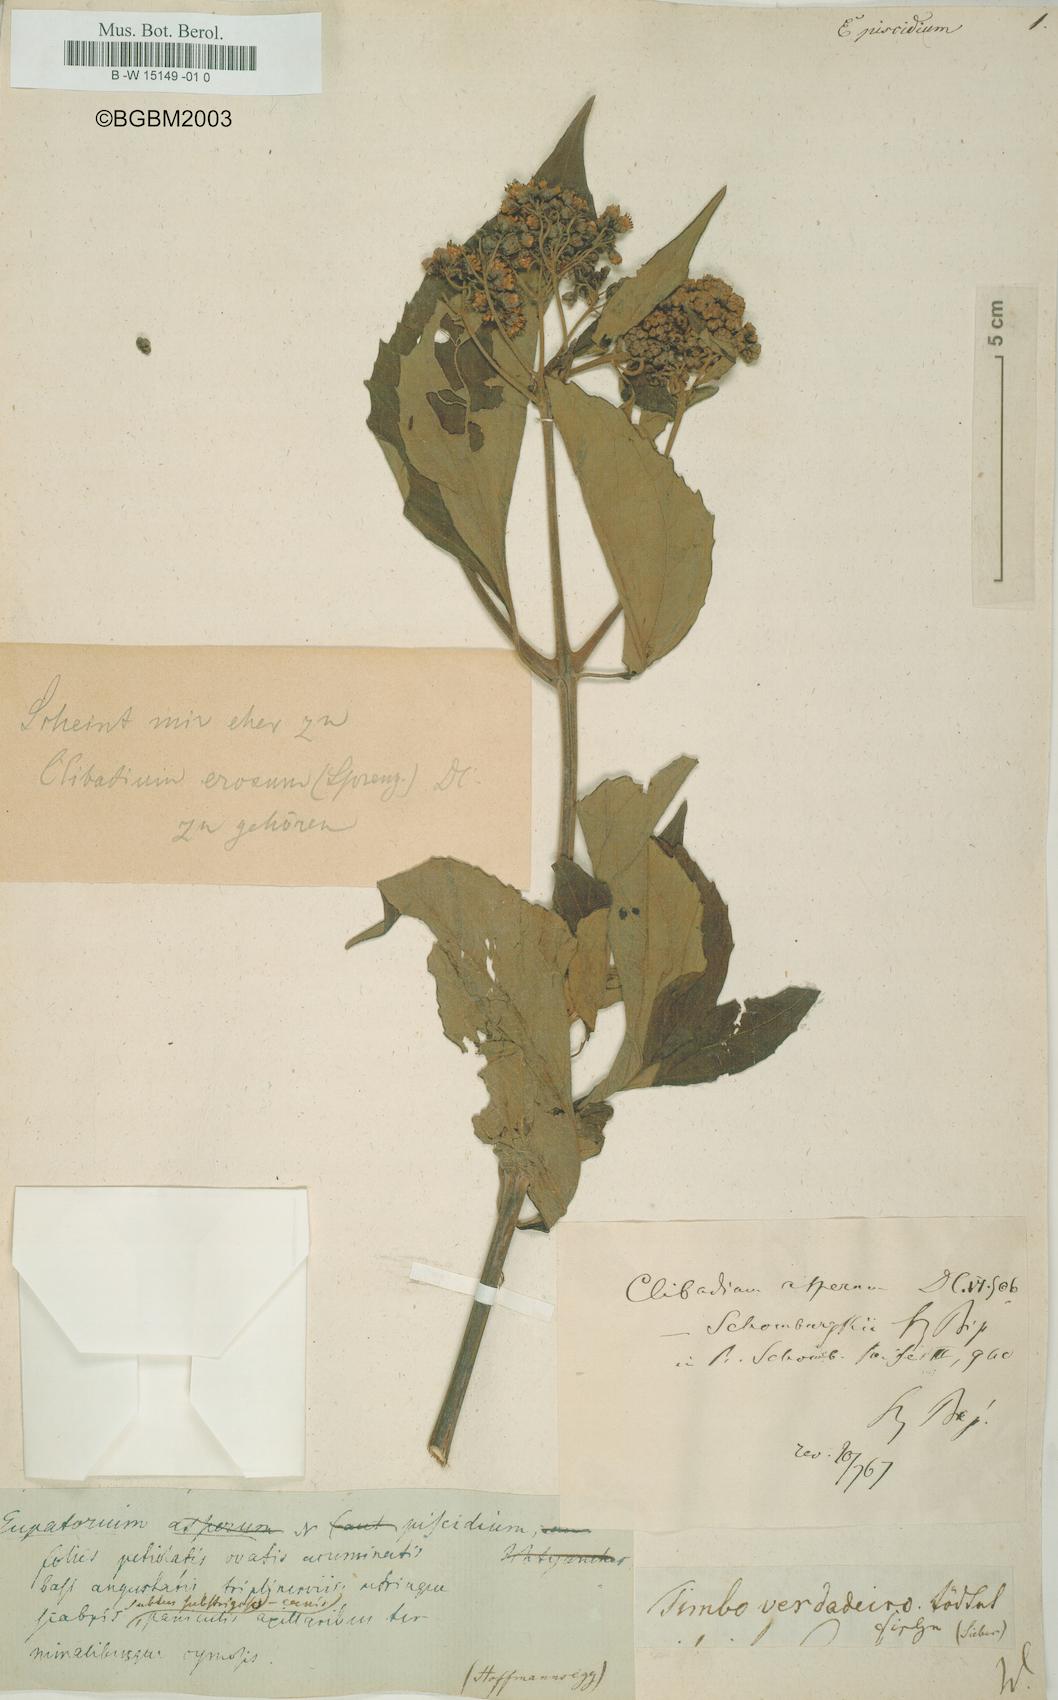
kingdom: Plantae
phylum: Tracheophyta
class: Magnoliopsida
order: Asterales
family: Asteraceae
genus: Eupatorium
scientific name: Eupatorium
